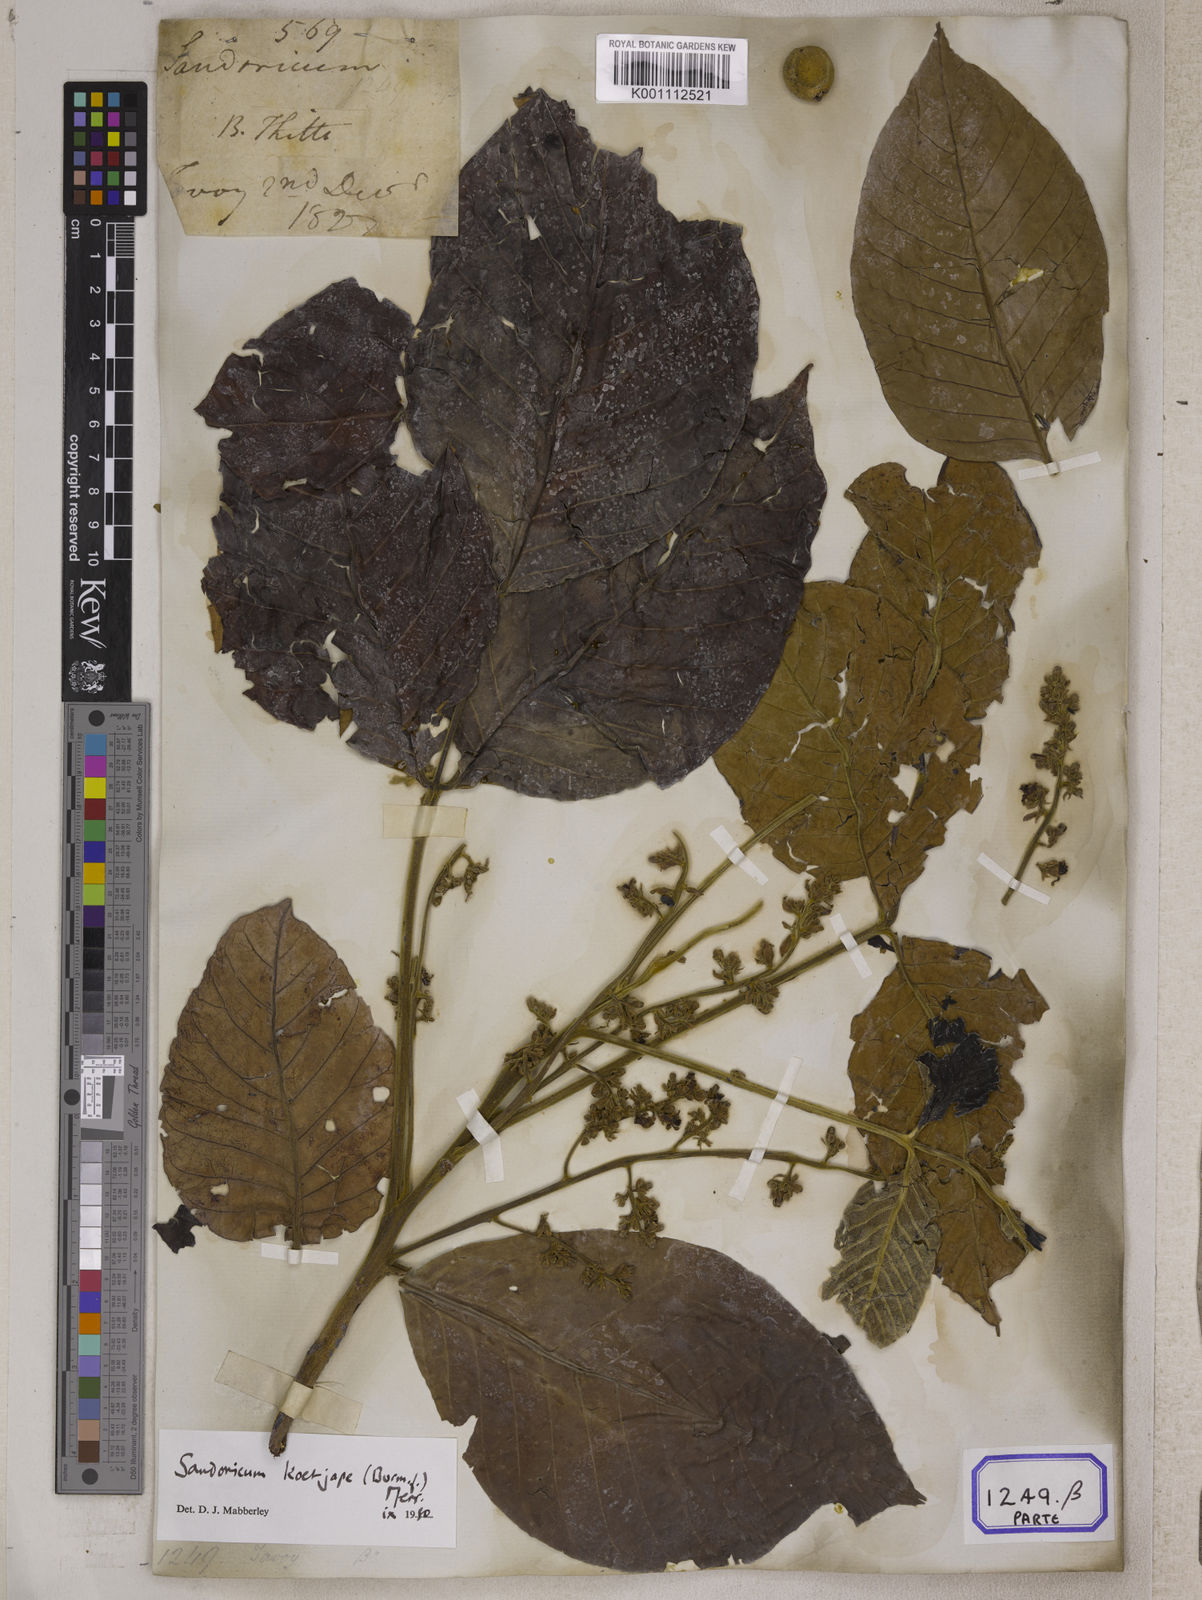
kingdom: Plantae
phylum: Tracheophyta
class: Magnoliopsida
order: Sapindales
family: Meliaceae
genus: Sandoricum
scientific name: Sandoricum
